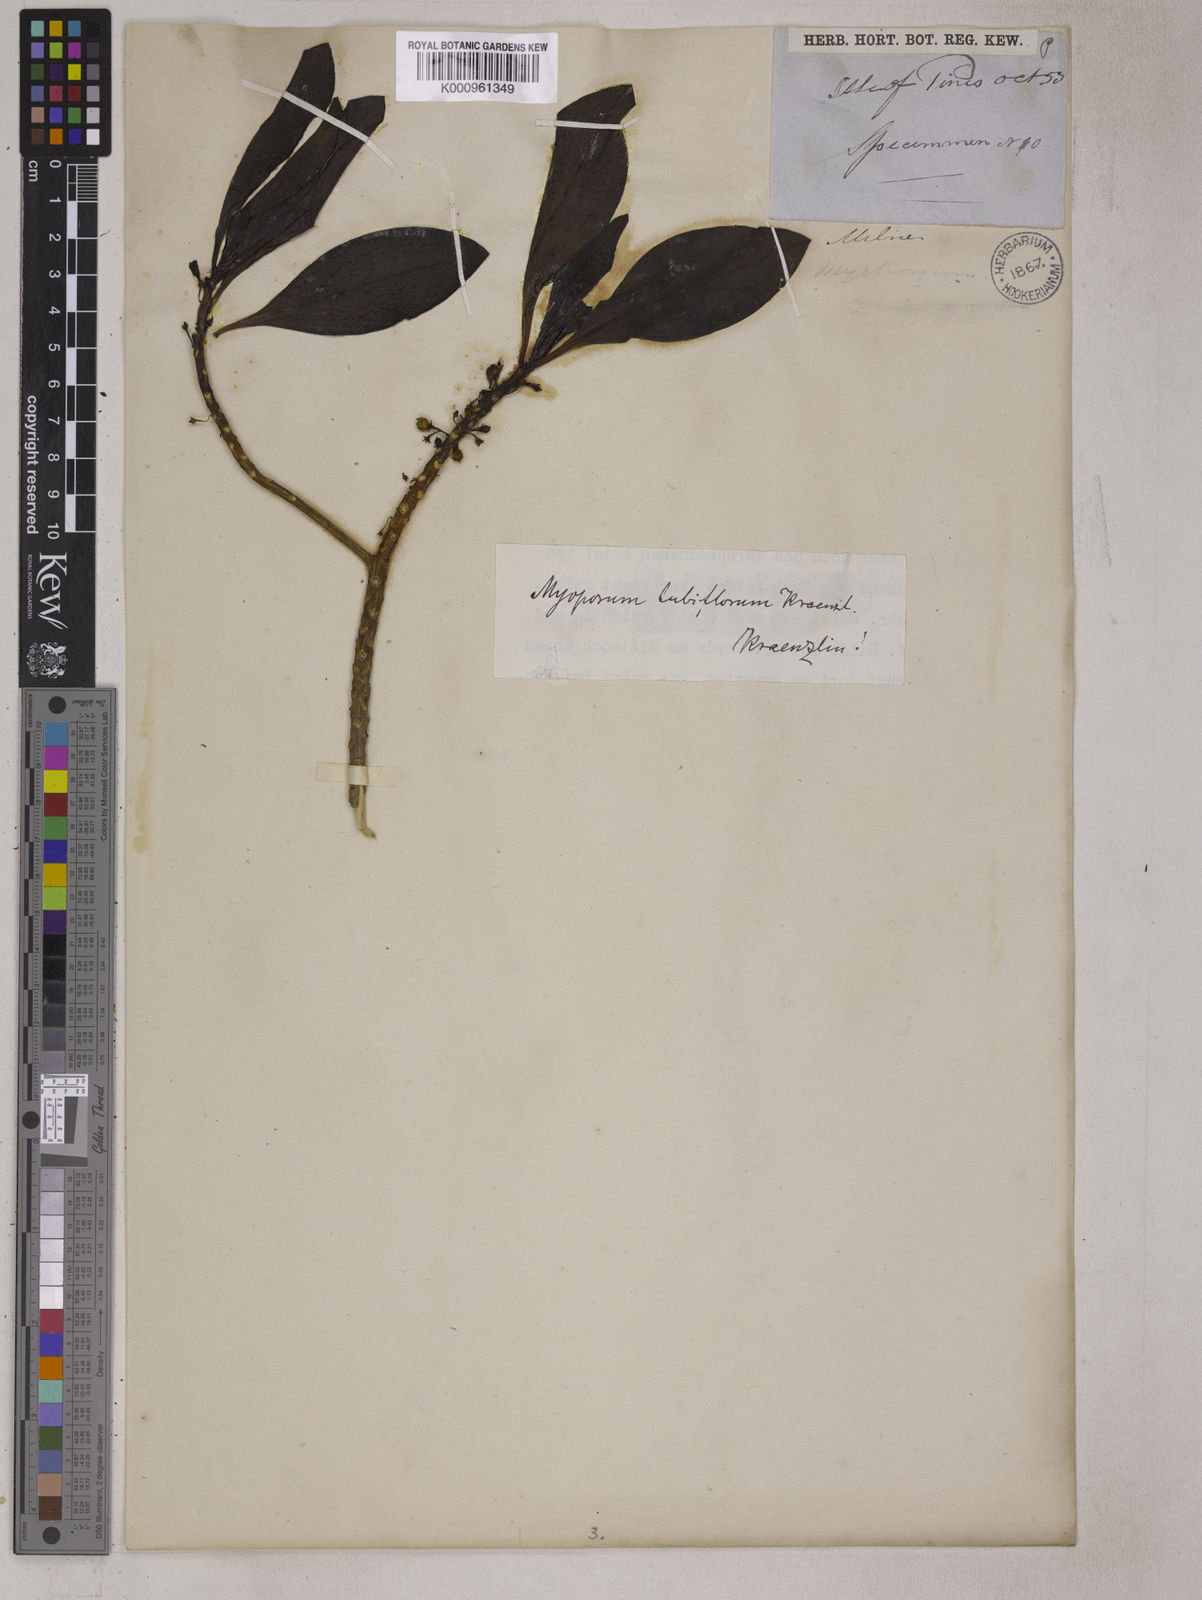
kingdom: Plantae
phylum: Tracheophyta
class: Magnoliopsida
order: Lamiales
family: Scrophulariaceae
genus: Myoporum
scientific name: Myoporum tubiflorum
